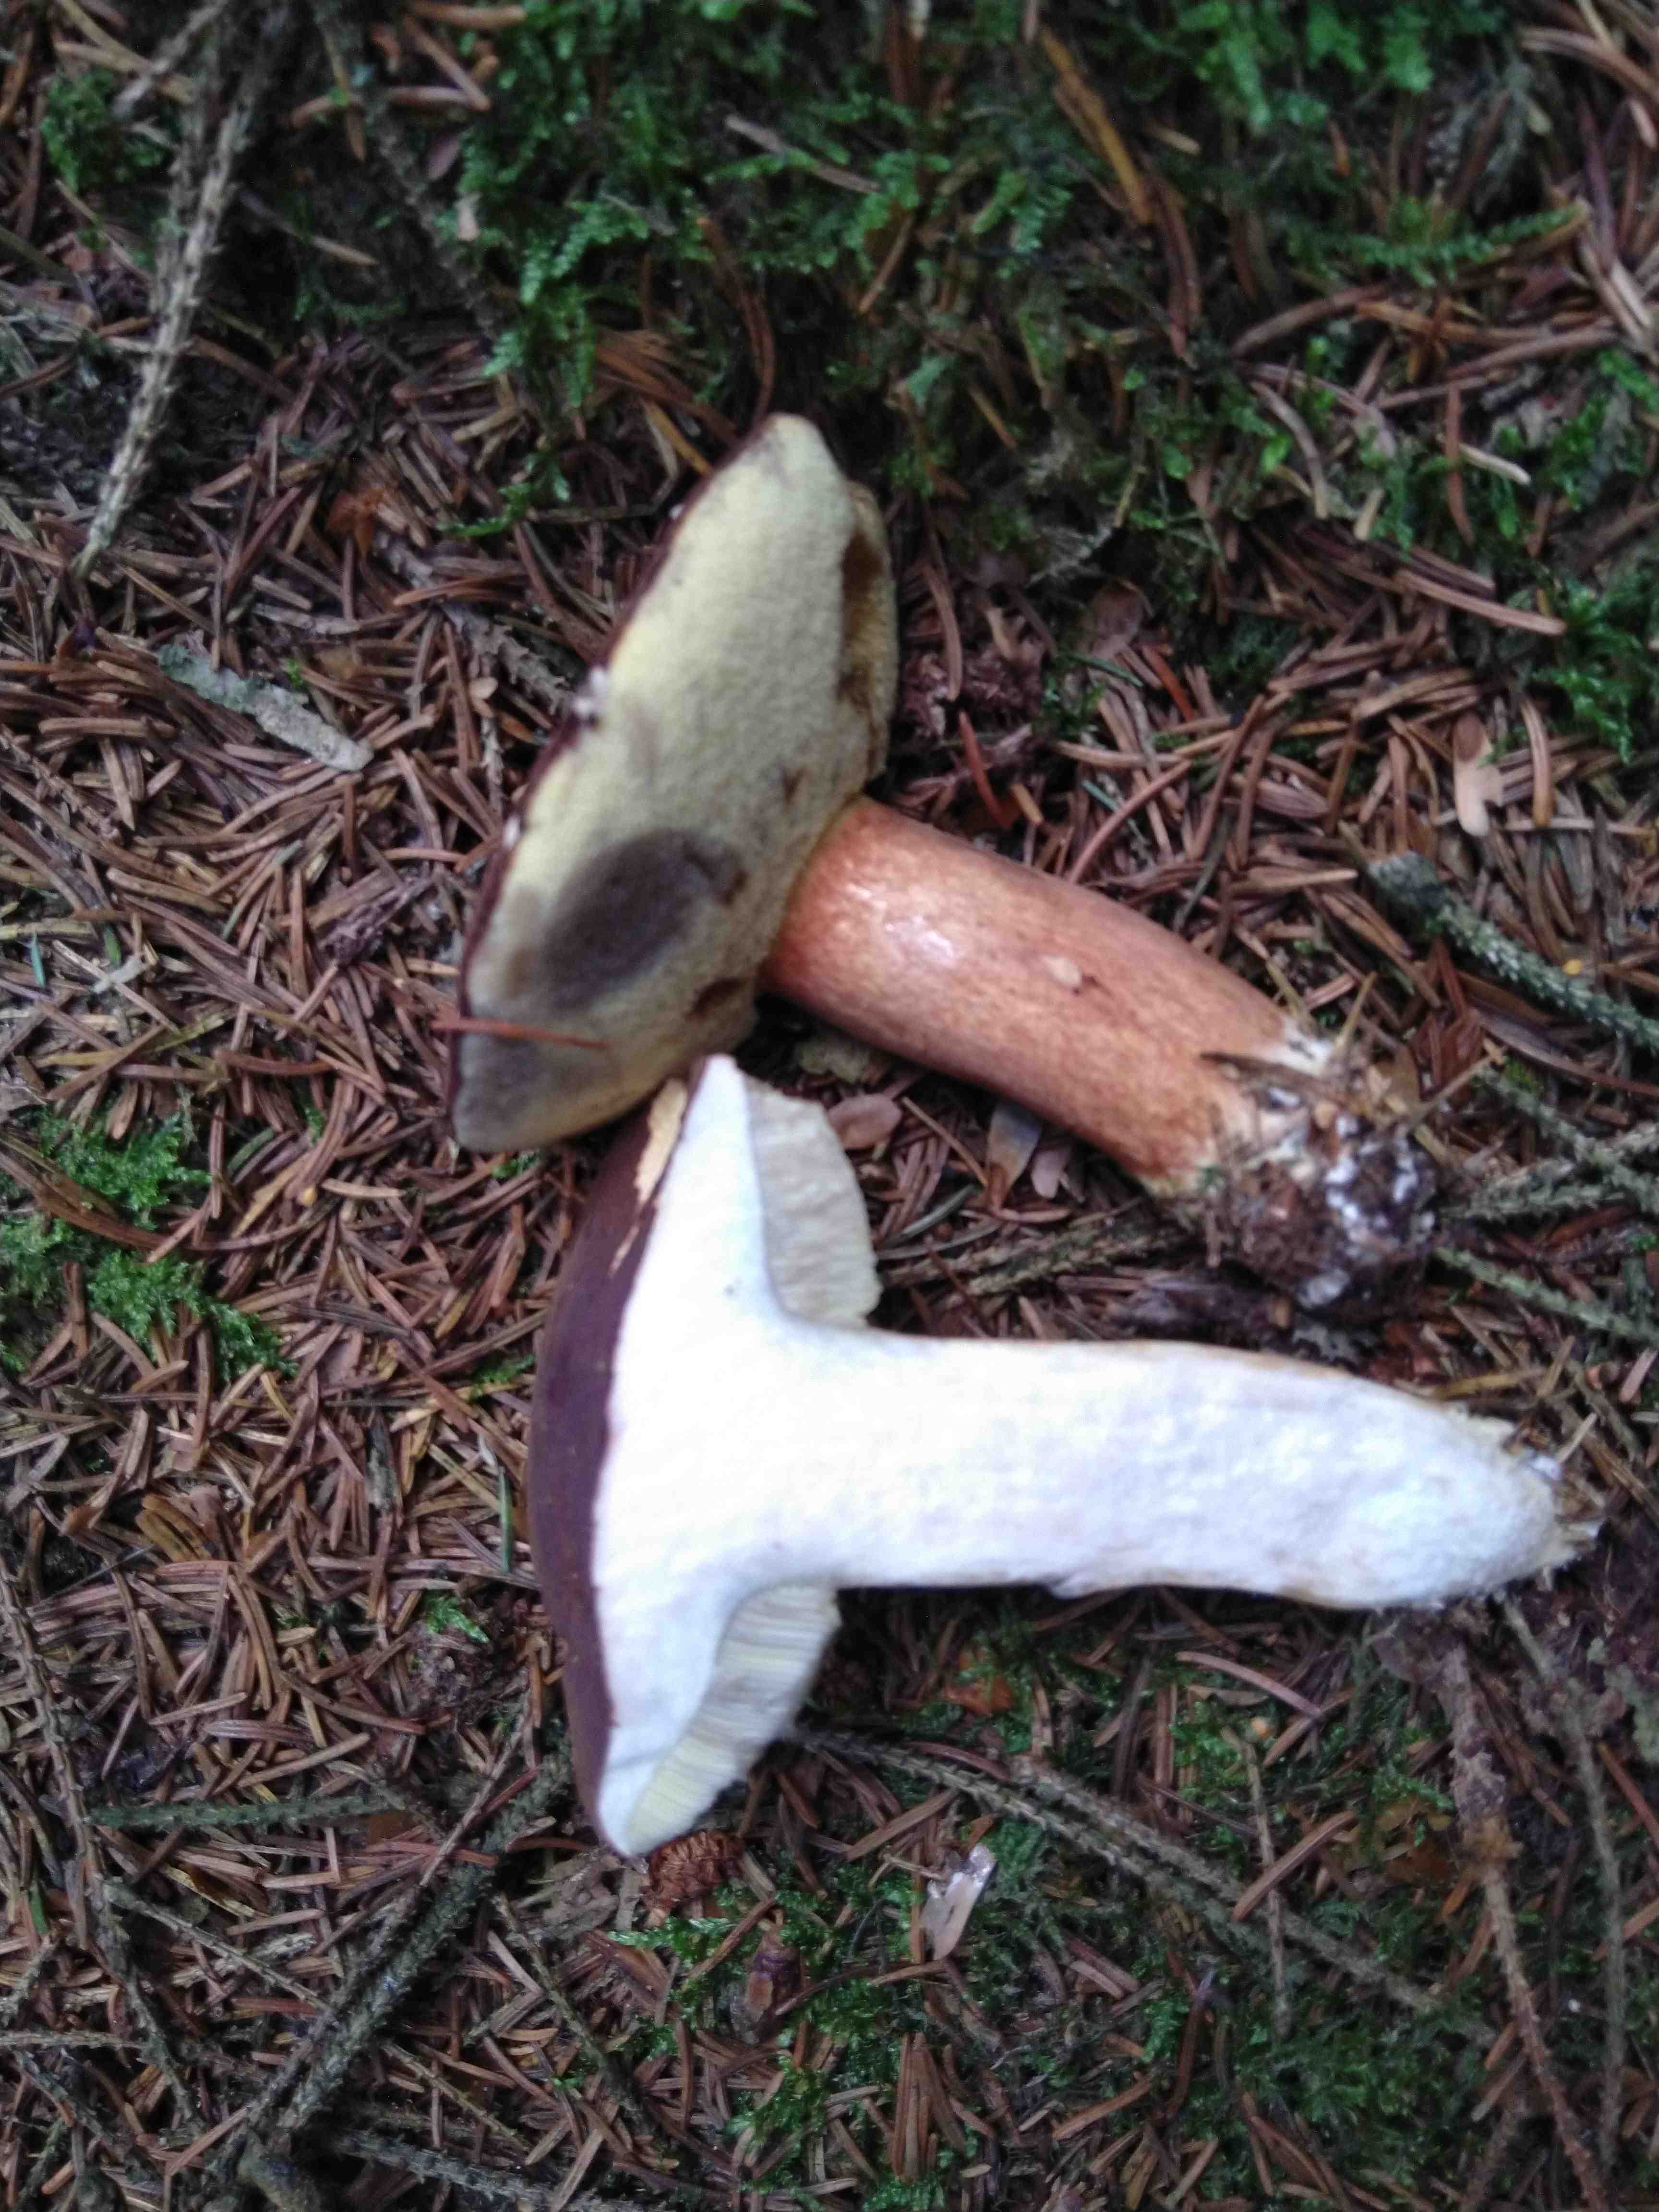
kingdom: Fungi
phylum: Basidiomycota
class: Agaricomycetes
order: Boletales
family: Boletaceae
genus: Imleria
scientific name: Imleria badia
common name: brunstokket rørhat
